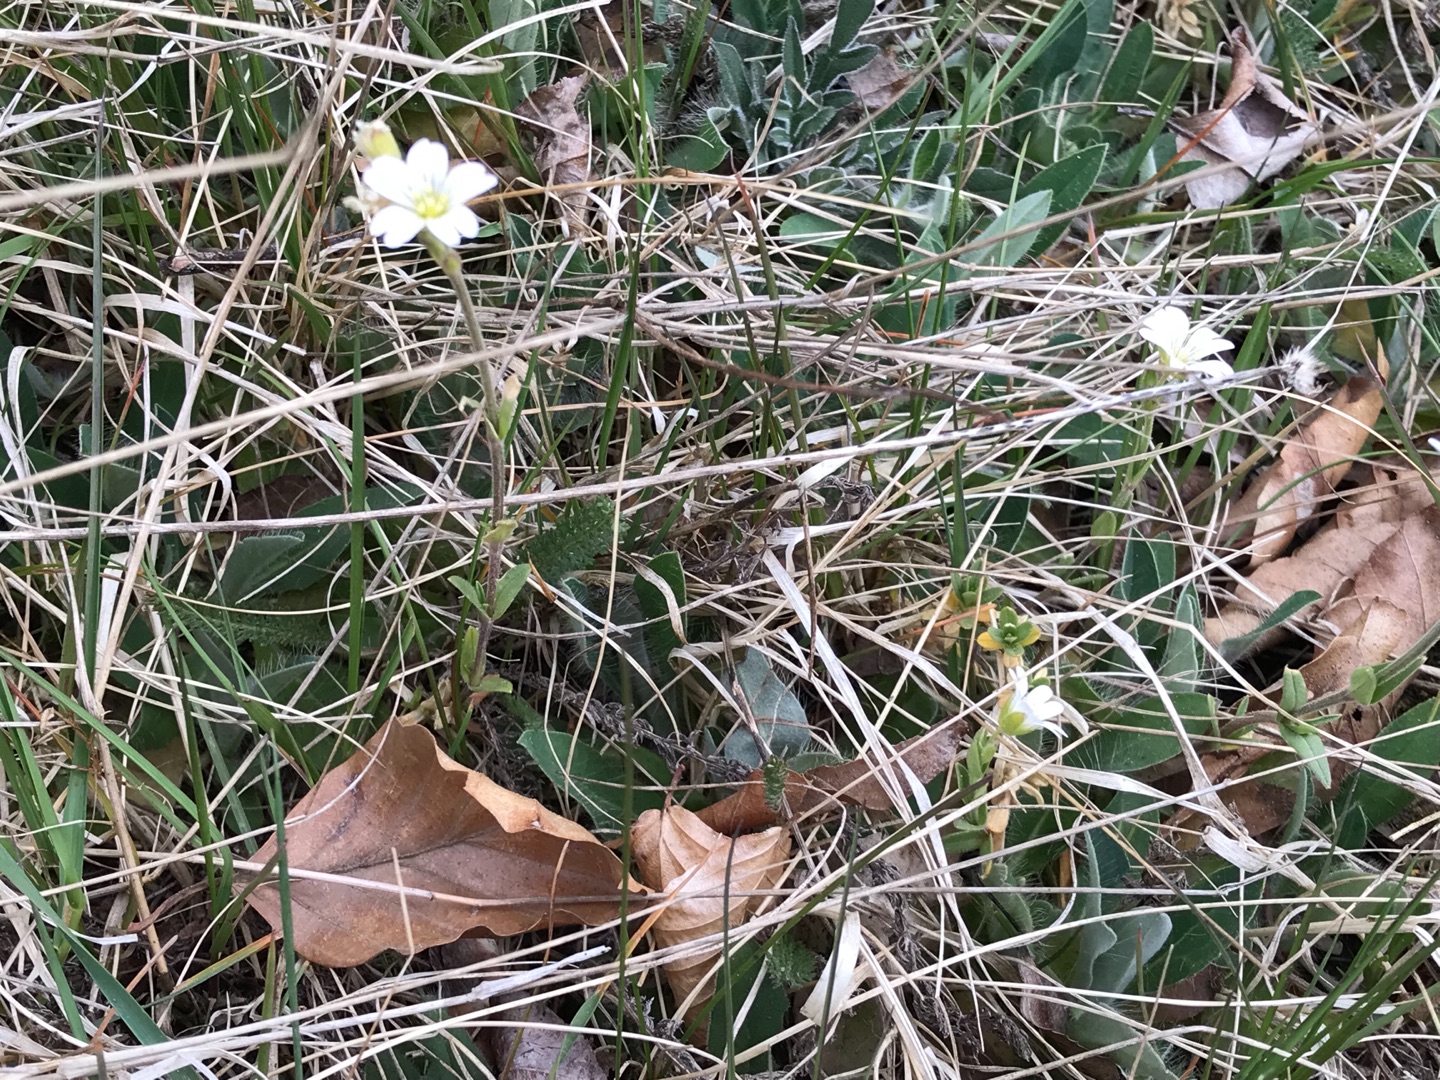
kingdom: Plantae
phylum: Tracheophyta
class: Magnoliopsida
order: Caryophyllales
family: Caryophyllaceae
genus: Cerastium
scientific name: Cerastium arvense
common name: Storblomstret hønsetarm
